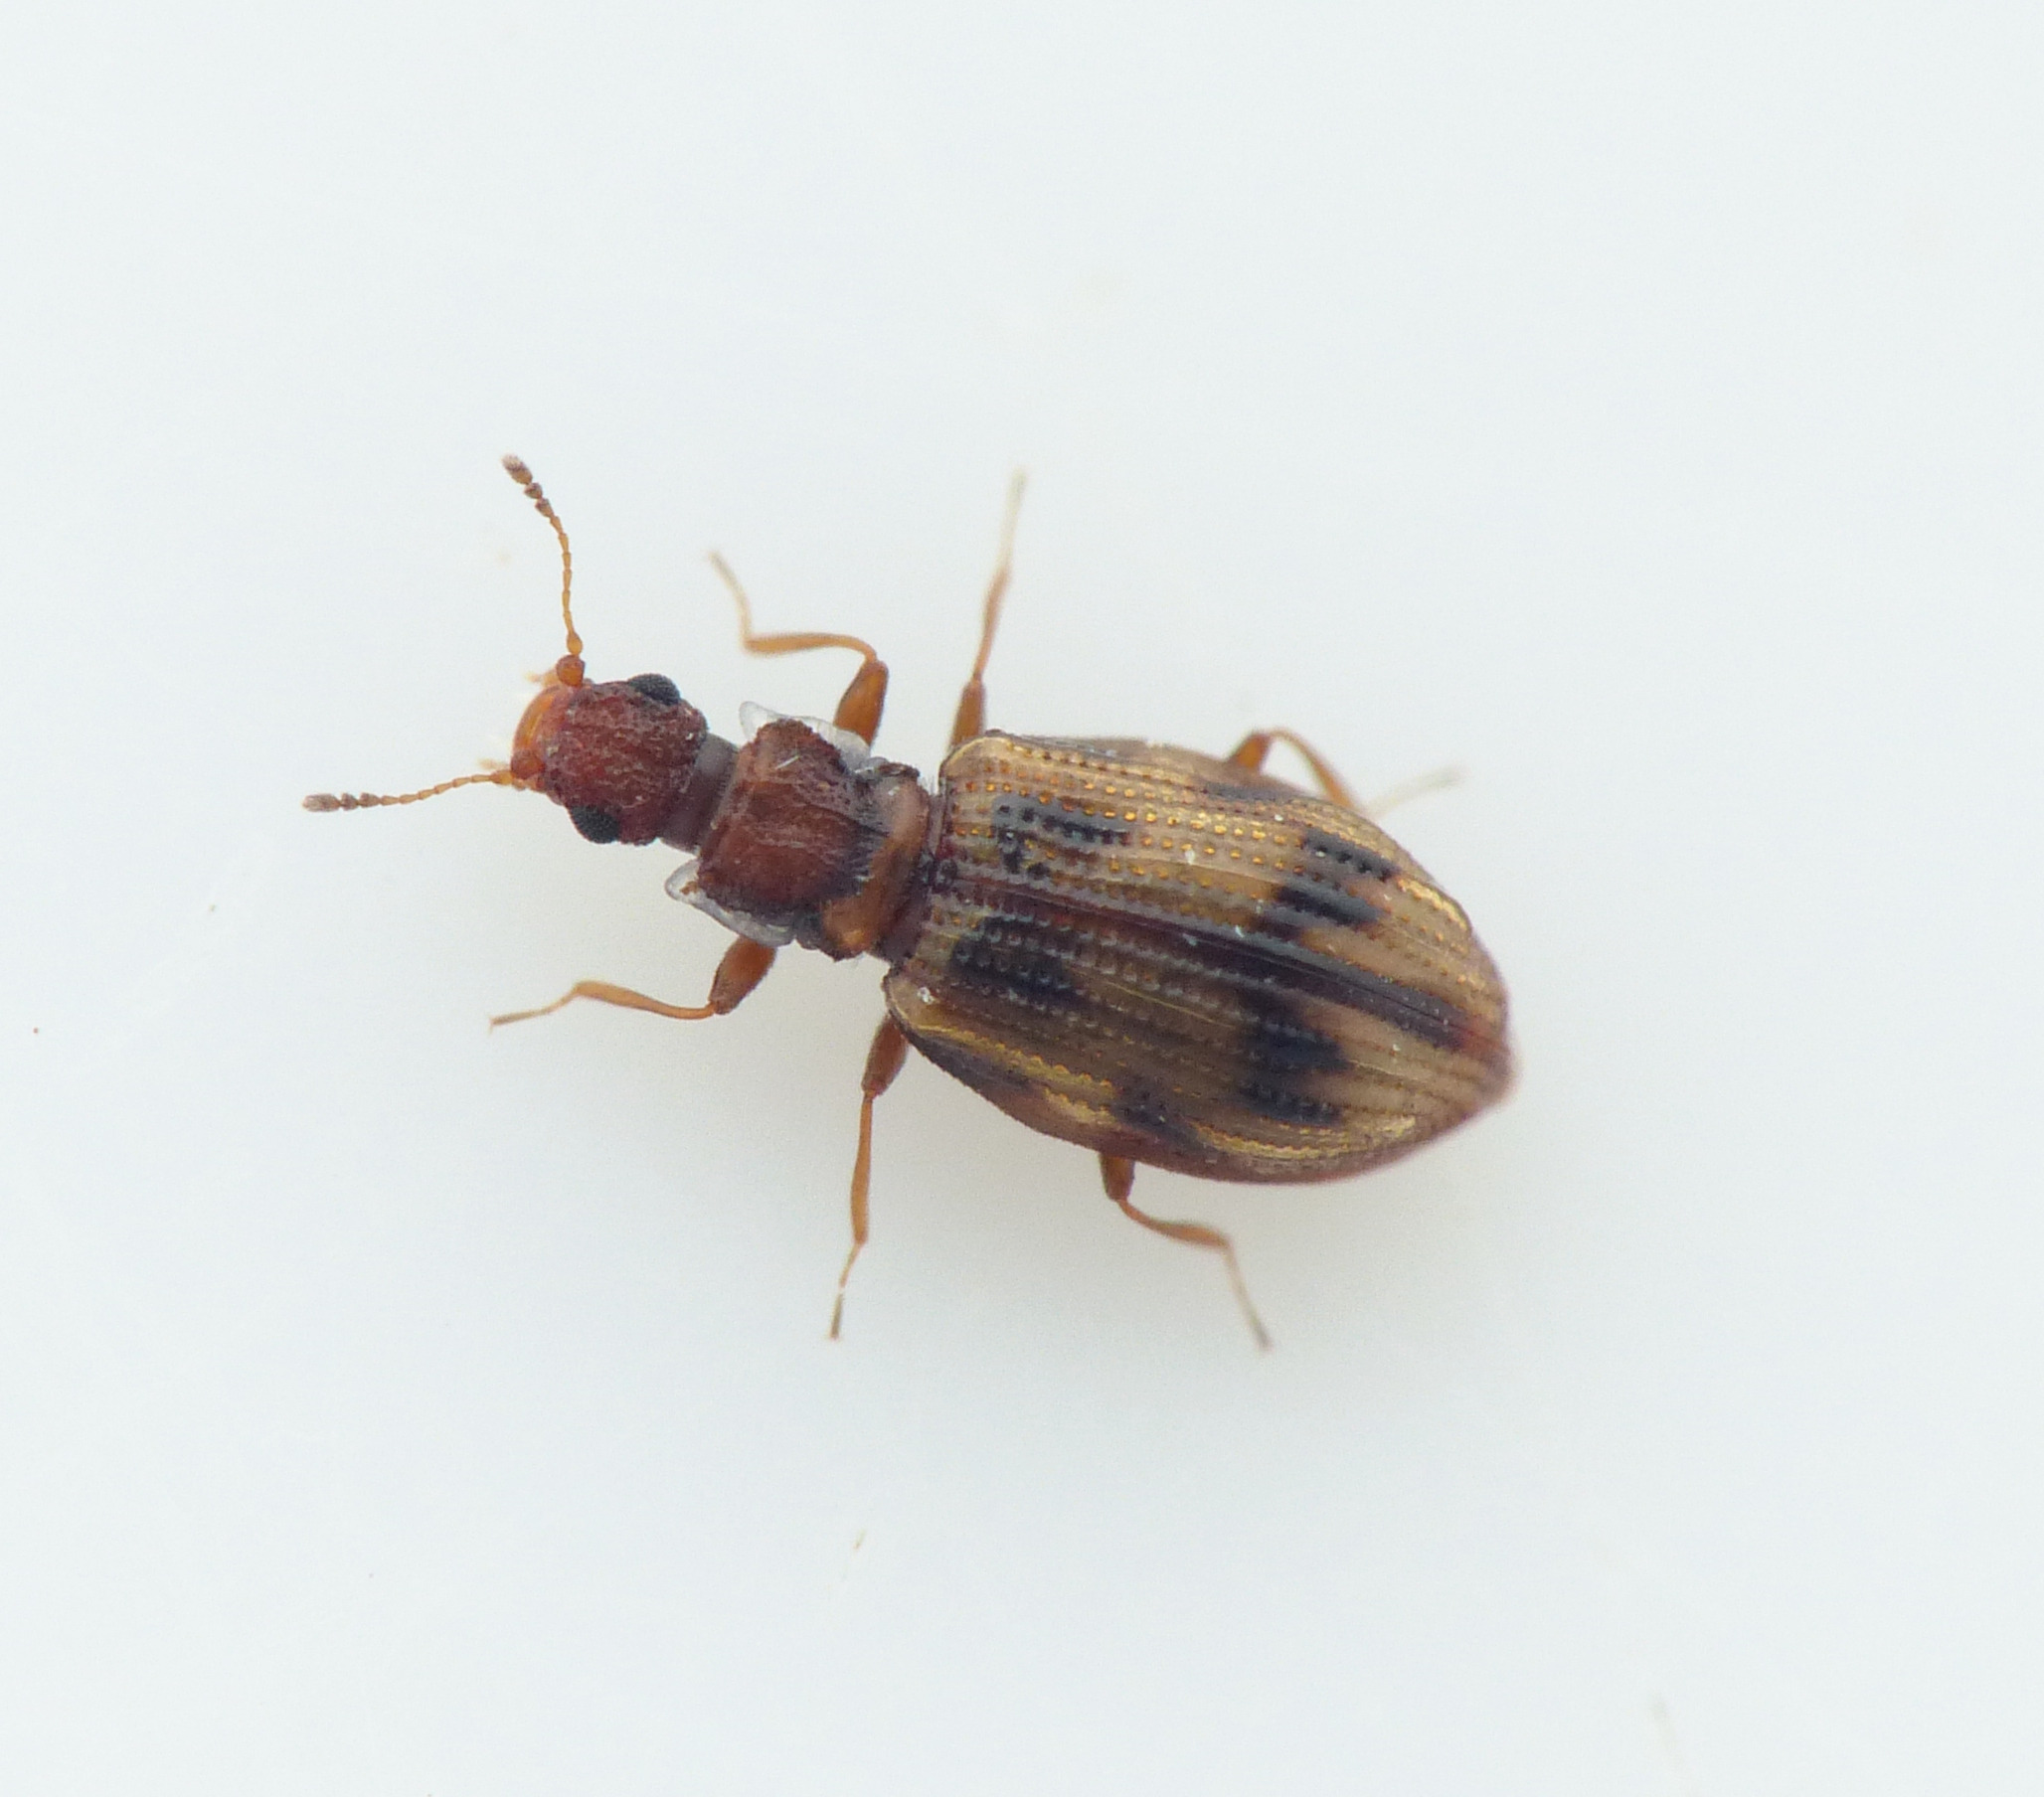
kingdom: Animalia
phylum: Arthropoda
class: Insecta
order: Coleoptera
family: Latridiidae
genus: Cartodere
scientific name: Cartodere bifasciata
